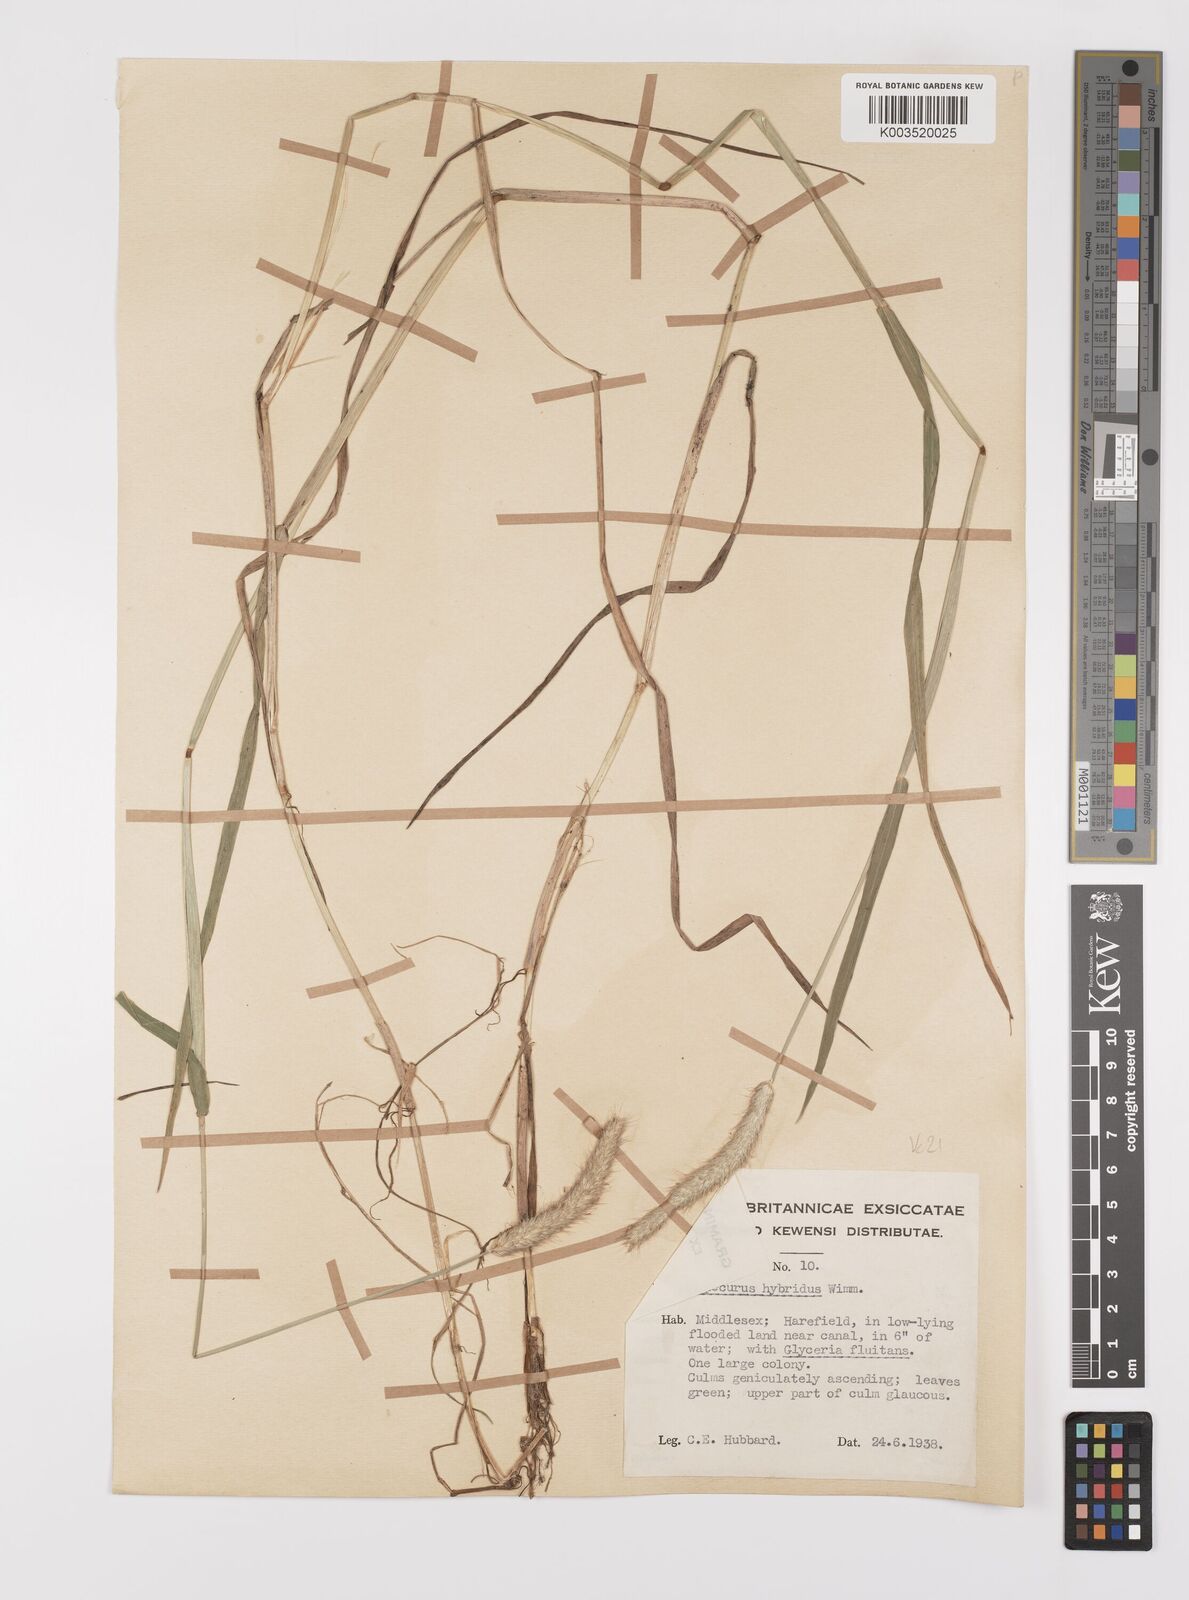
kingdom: Plantae
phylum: Tracheophyta
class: Liliopsida
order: Poales
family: Poaceae
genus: Alopecurus
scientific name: Alopecurus brachystylus
